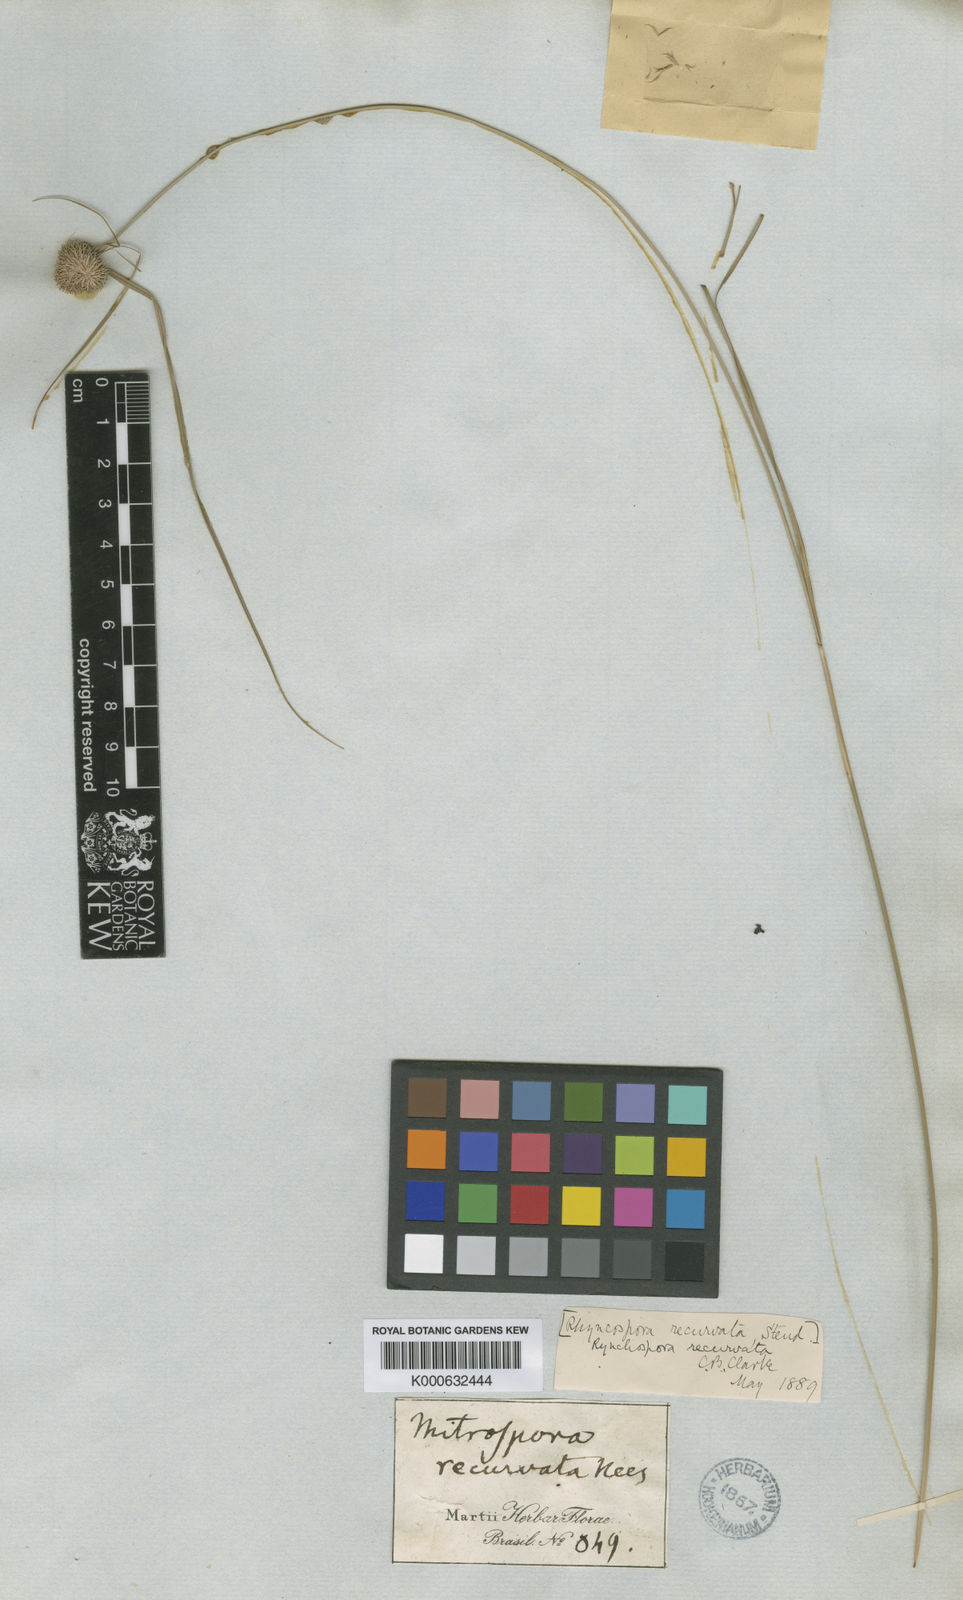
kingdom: Plantae
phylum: Tracheophyta
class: Liliopsida
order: Poales
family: Cyperaceae
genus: Rhynchospora
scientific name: Rhynchospora recurvata
